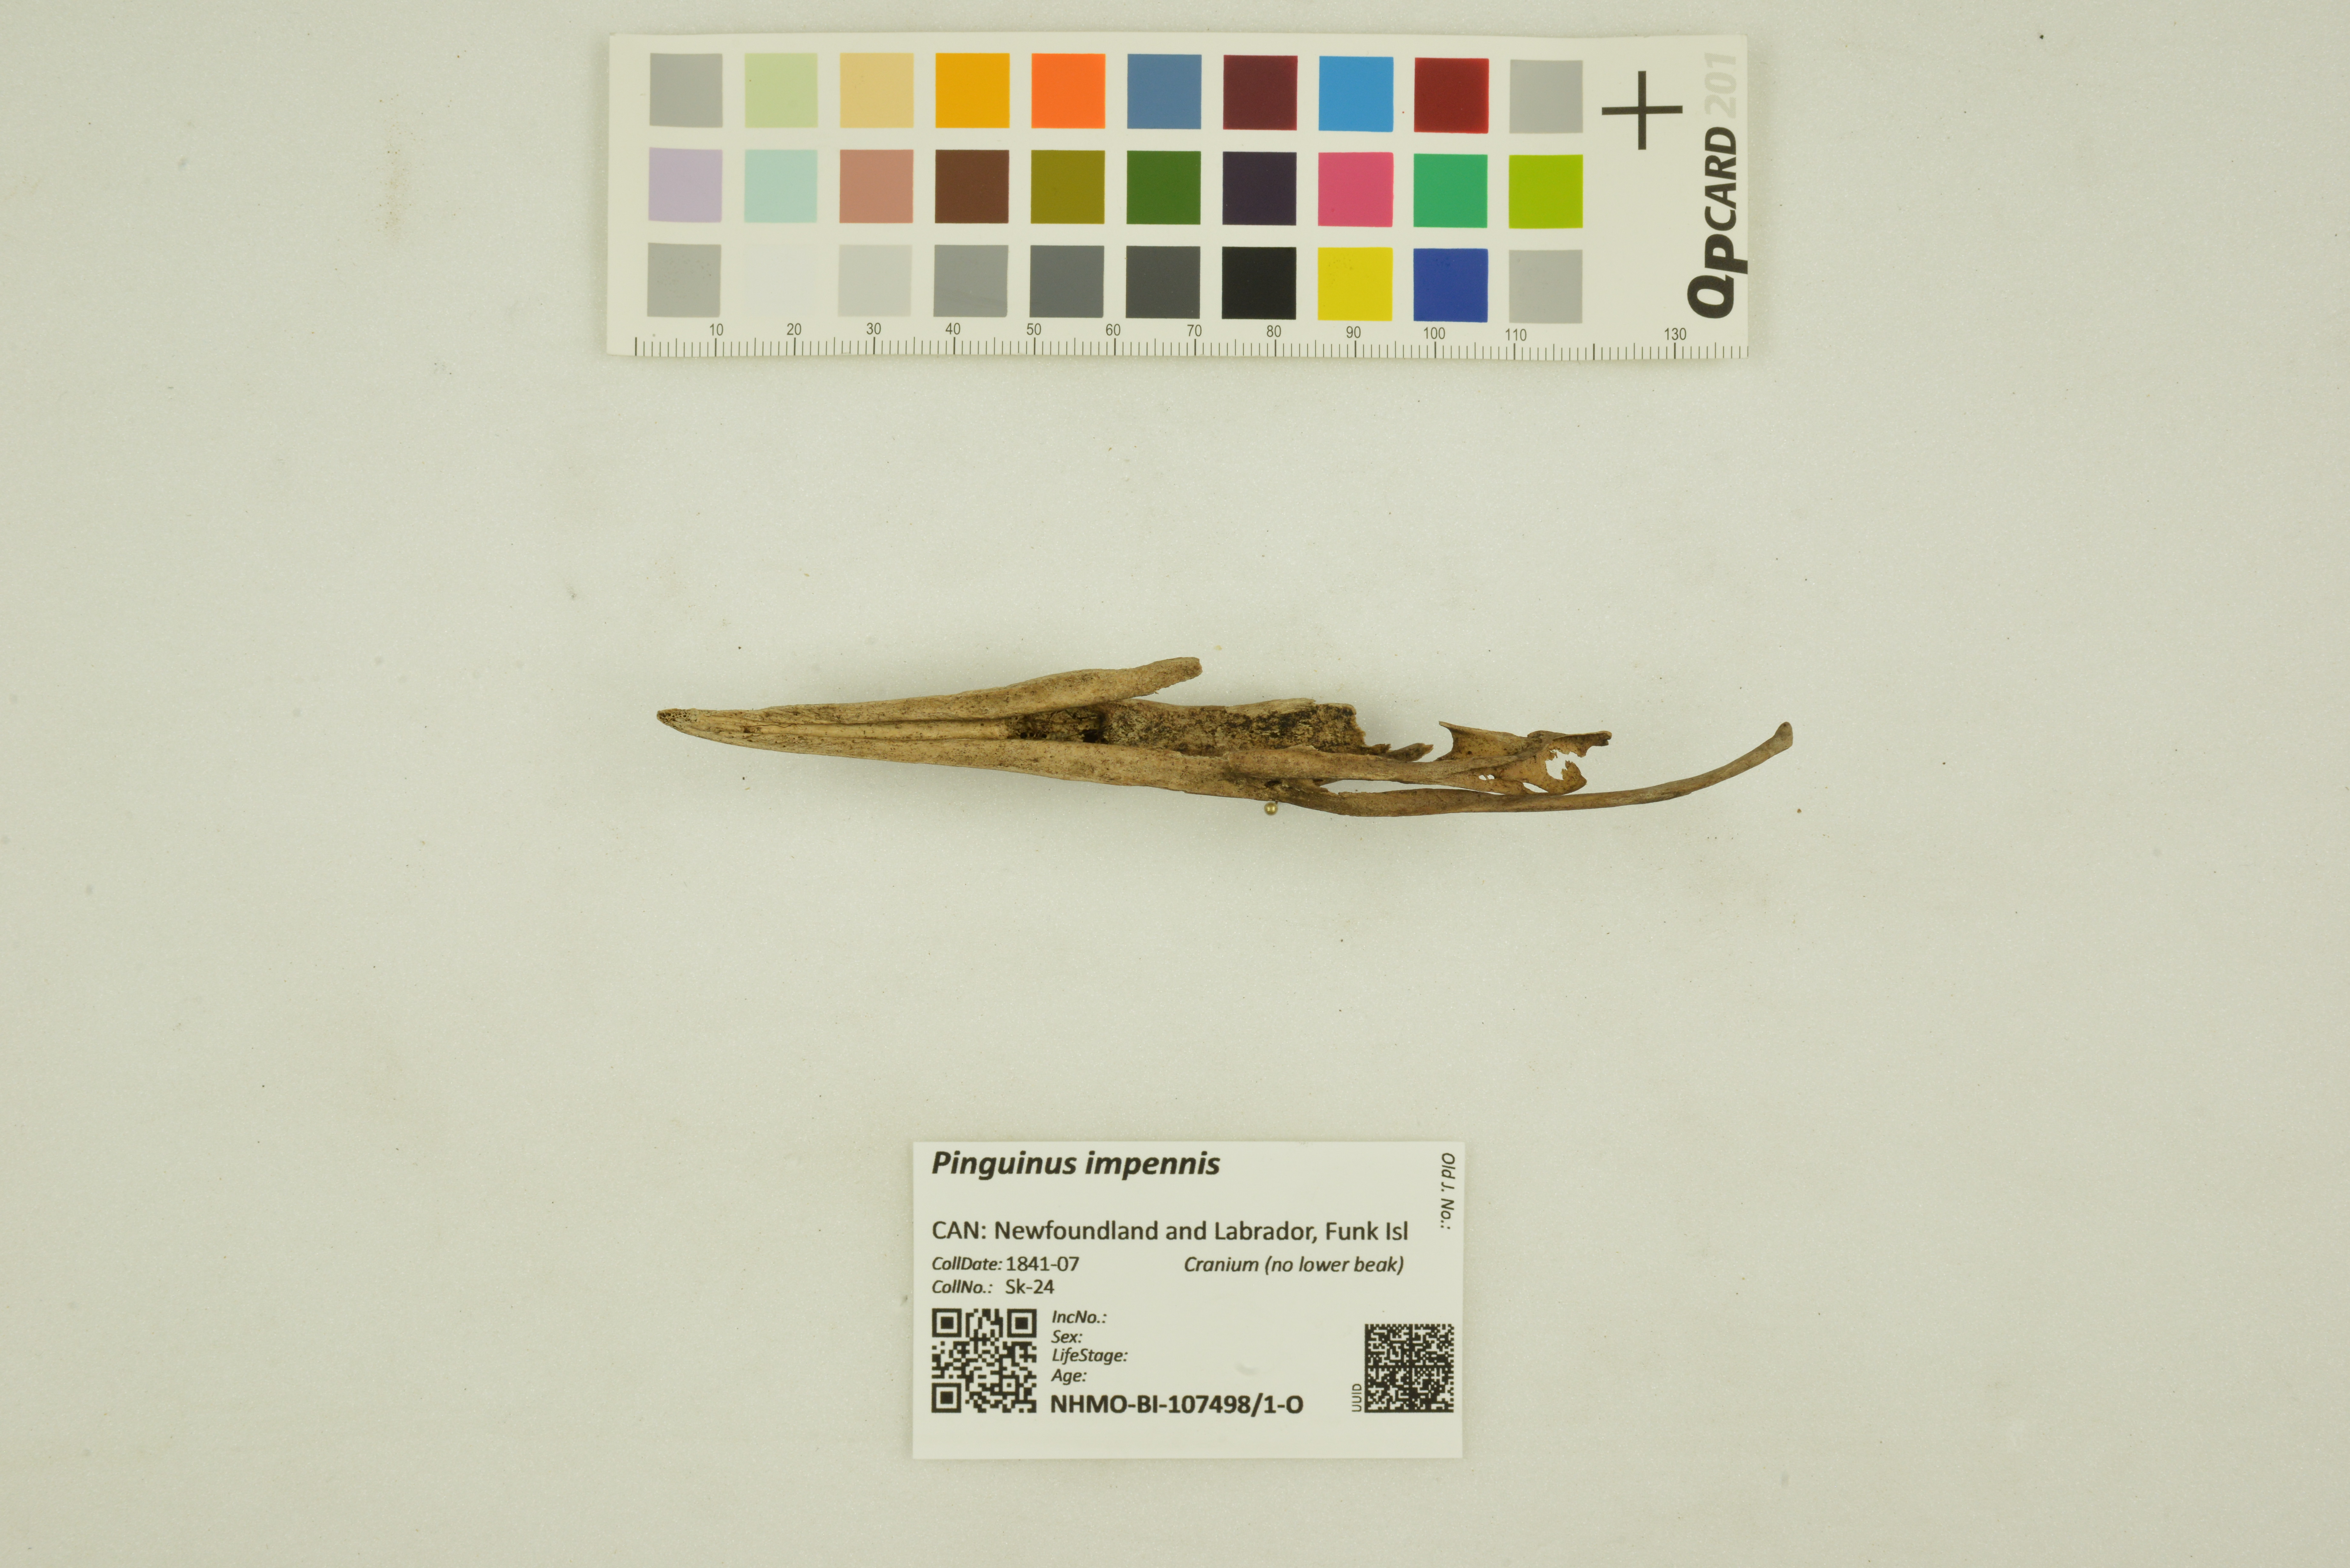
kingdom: Animalia
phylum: Chordata
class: Aves
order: Charadriiformes
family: Alcidae
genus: Pinguinus
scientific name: Pinguinus impennis
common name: Great auk
